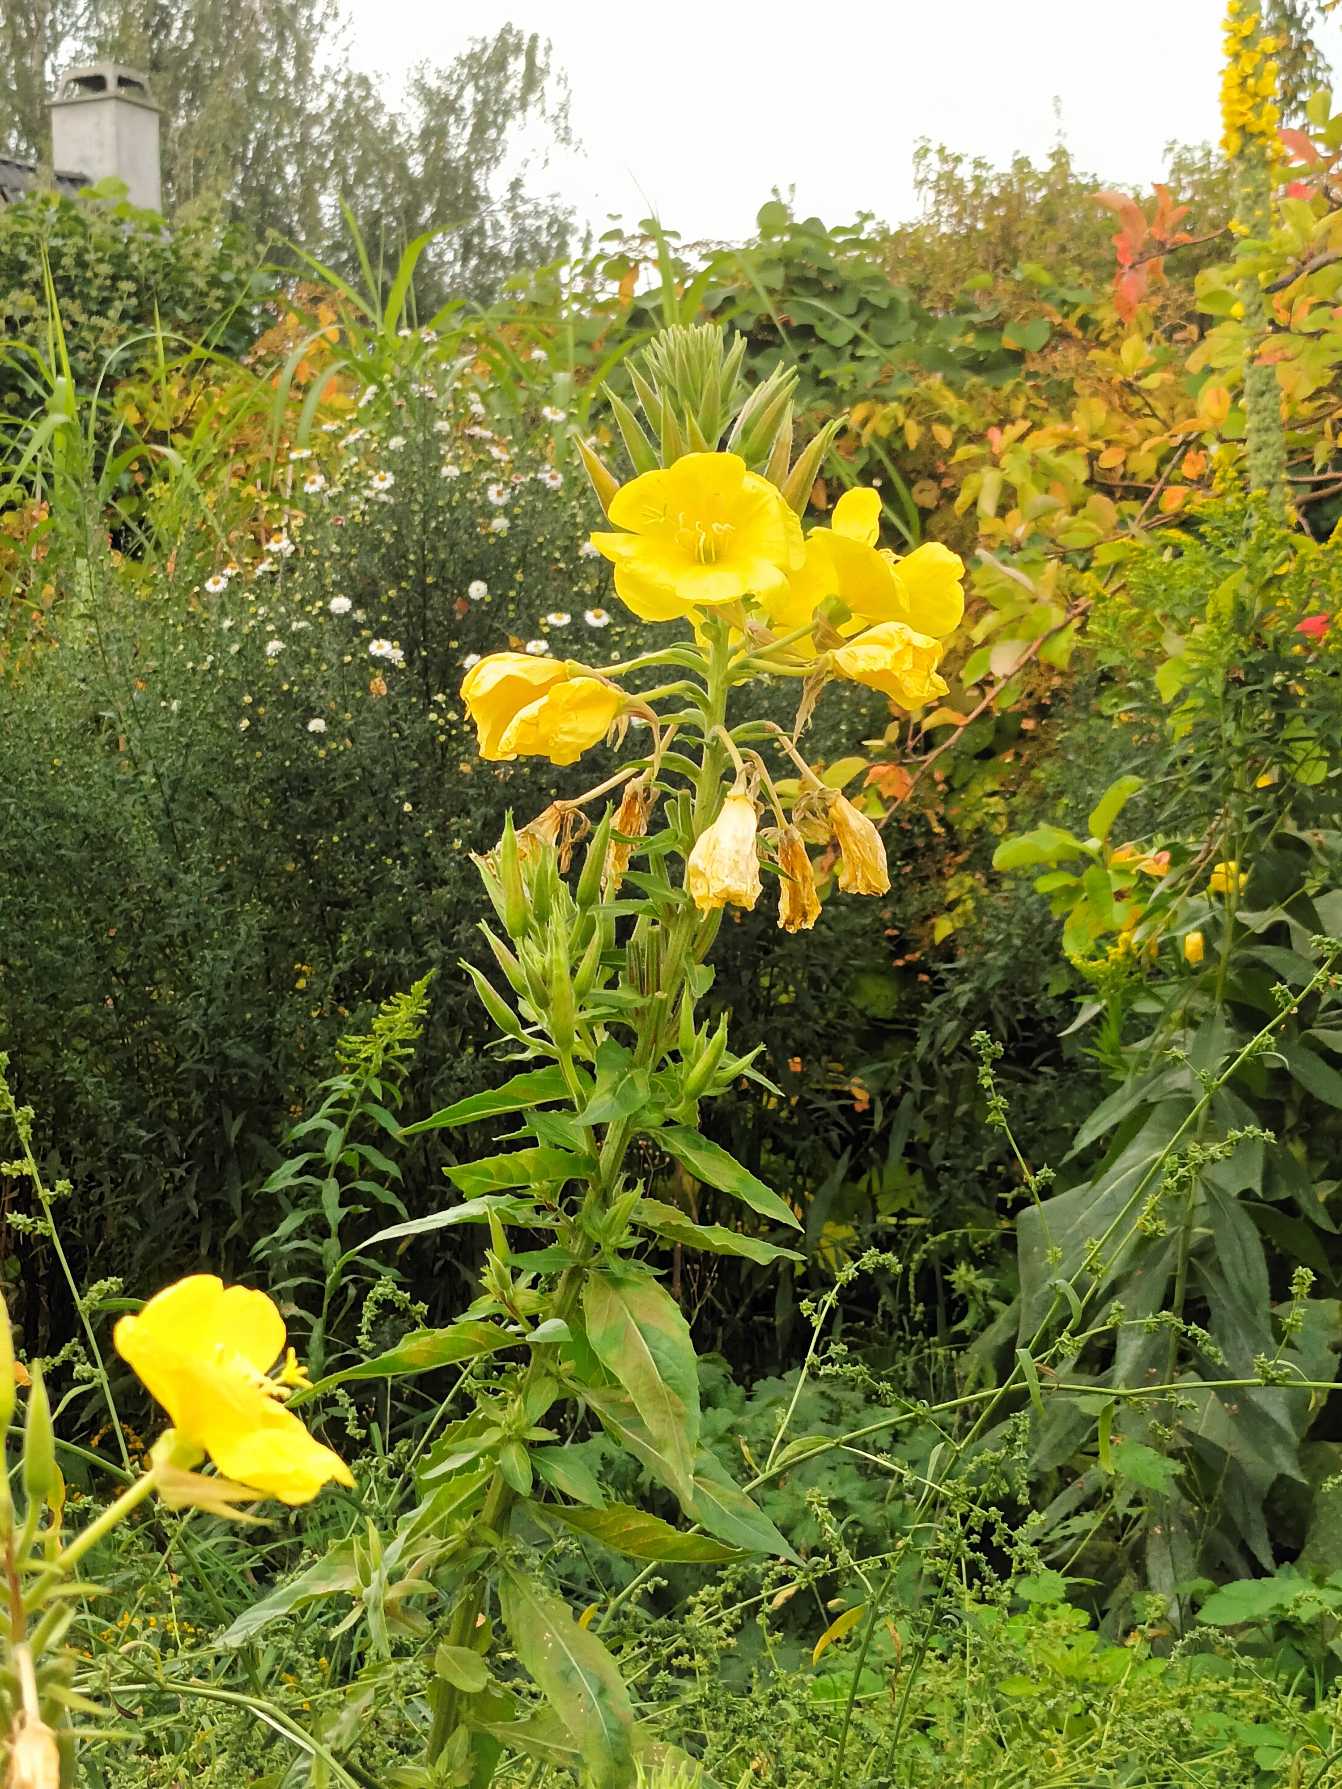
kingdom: Plantae
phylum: Tracheophyta
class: Magnoliopsida
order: Myrtales
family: Onagraceae
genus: Oenothera
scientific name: Oenothera glazioviana
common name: Kæmpe-natlys
